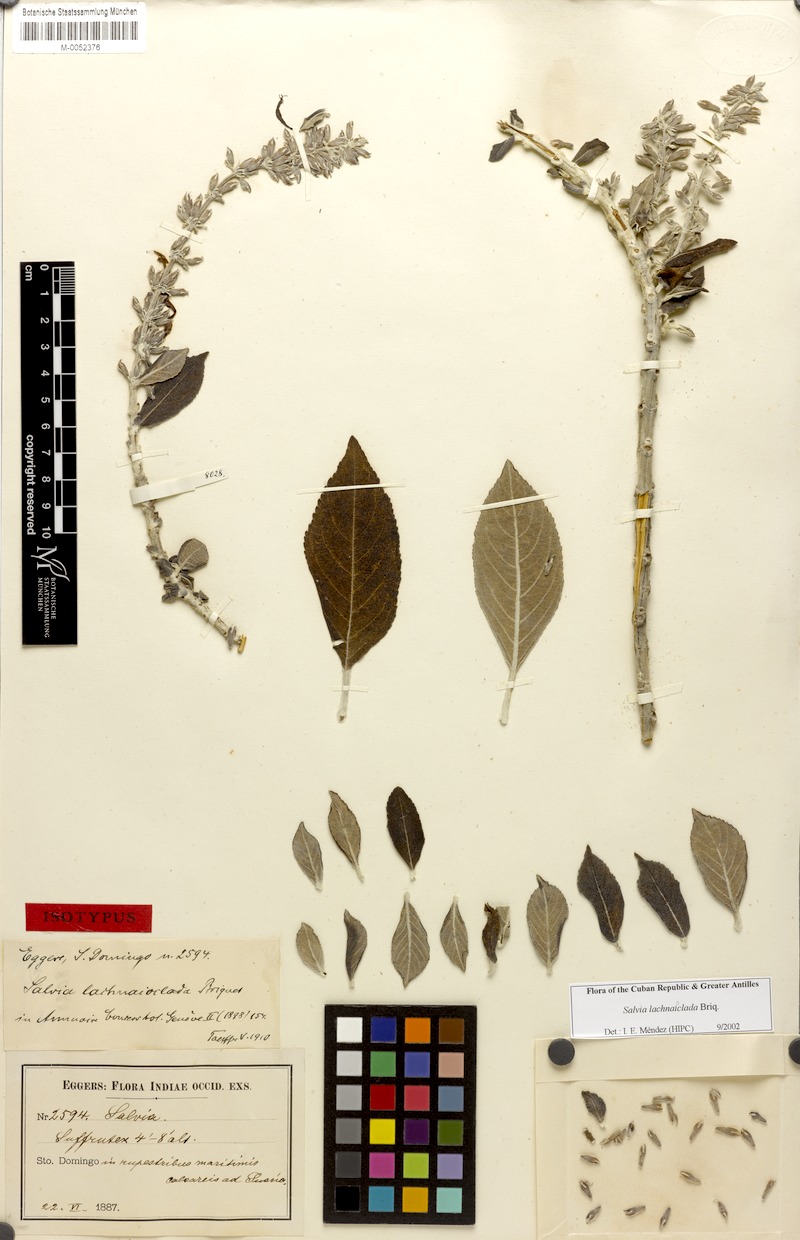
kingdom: Plantae
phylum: Tracheophyta
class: Magnoliopsida
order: Lamiales
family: Lamiaceae
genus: Salvia
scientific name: Salvia lachnaioclada
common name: Sosúa sage
